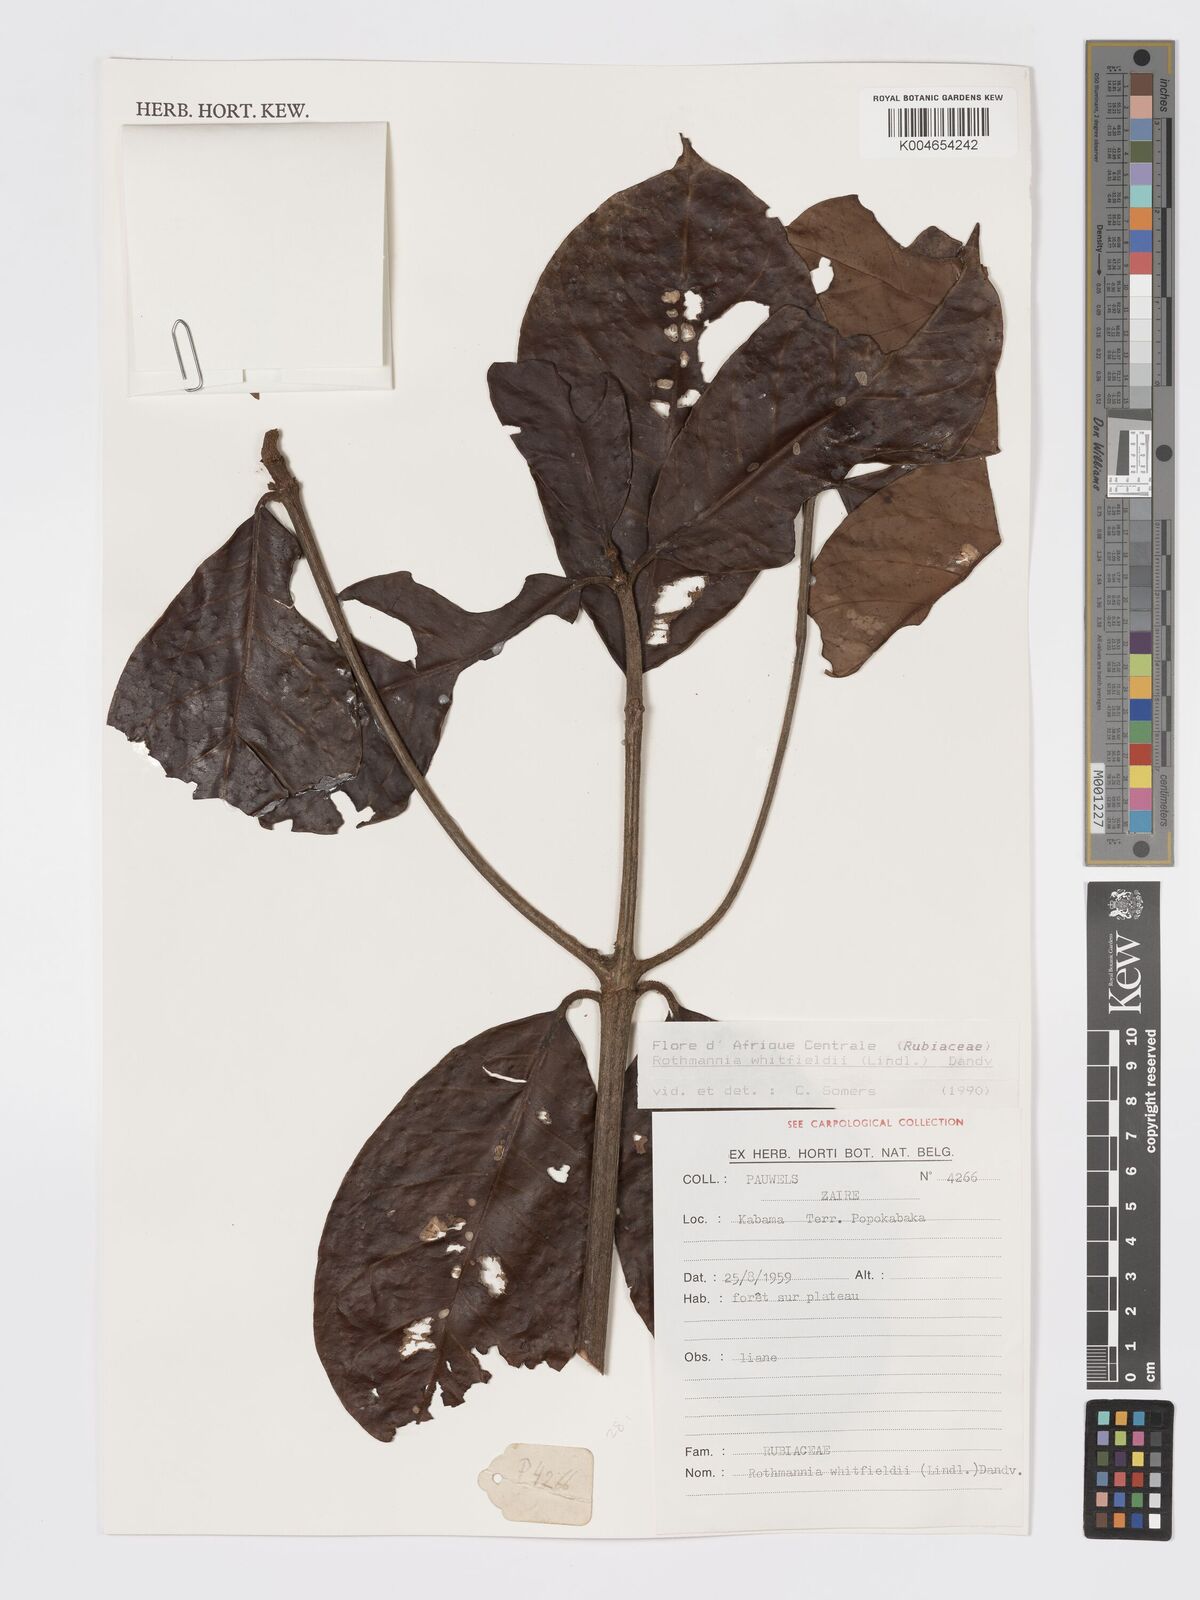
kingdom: Plantae
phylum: Tracheophyta
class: Magnoliopsida
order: Gentianales
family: Rubiaceae
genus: Rothmannia
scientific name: Rothmannia whitfieldii
